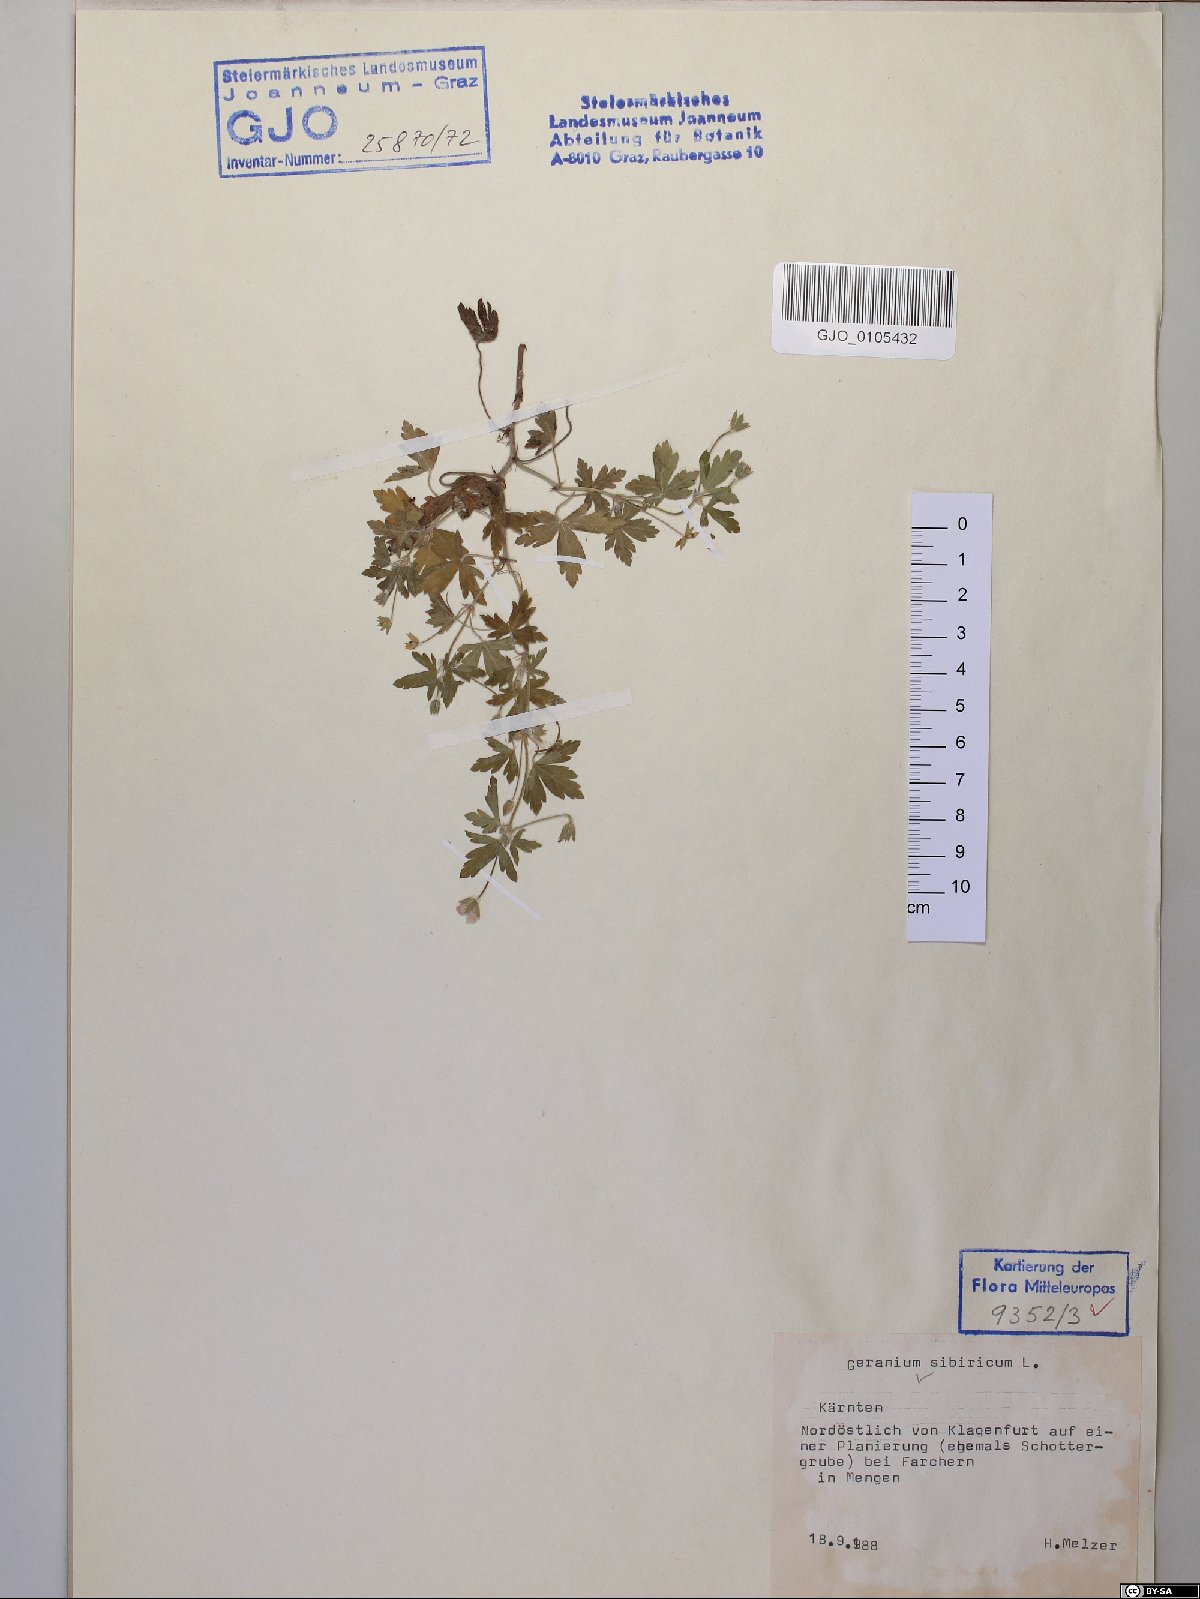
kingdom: Plantae
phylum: Tracheophyta
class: Magnoliopsida
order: Geraniales
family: Geraniaceae
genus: Geranium
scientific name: Geranium sibiricum
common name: Siberian crane's-bill
